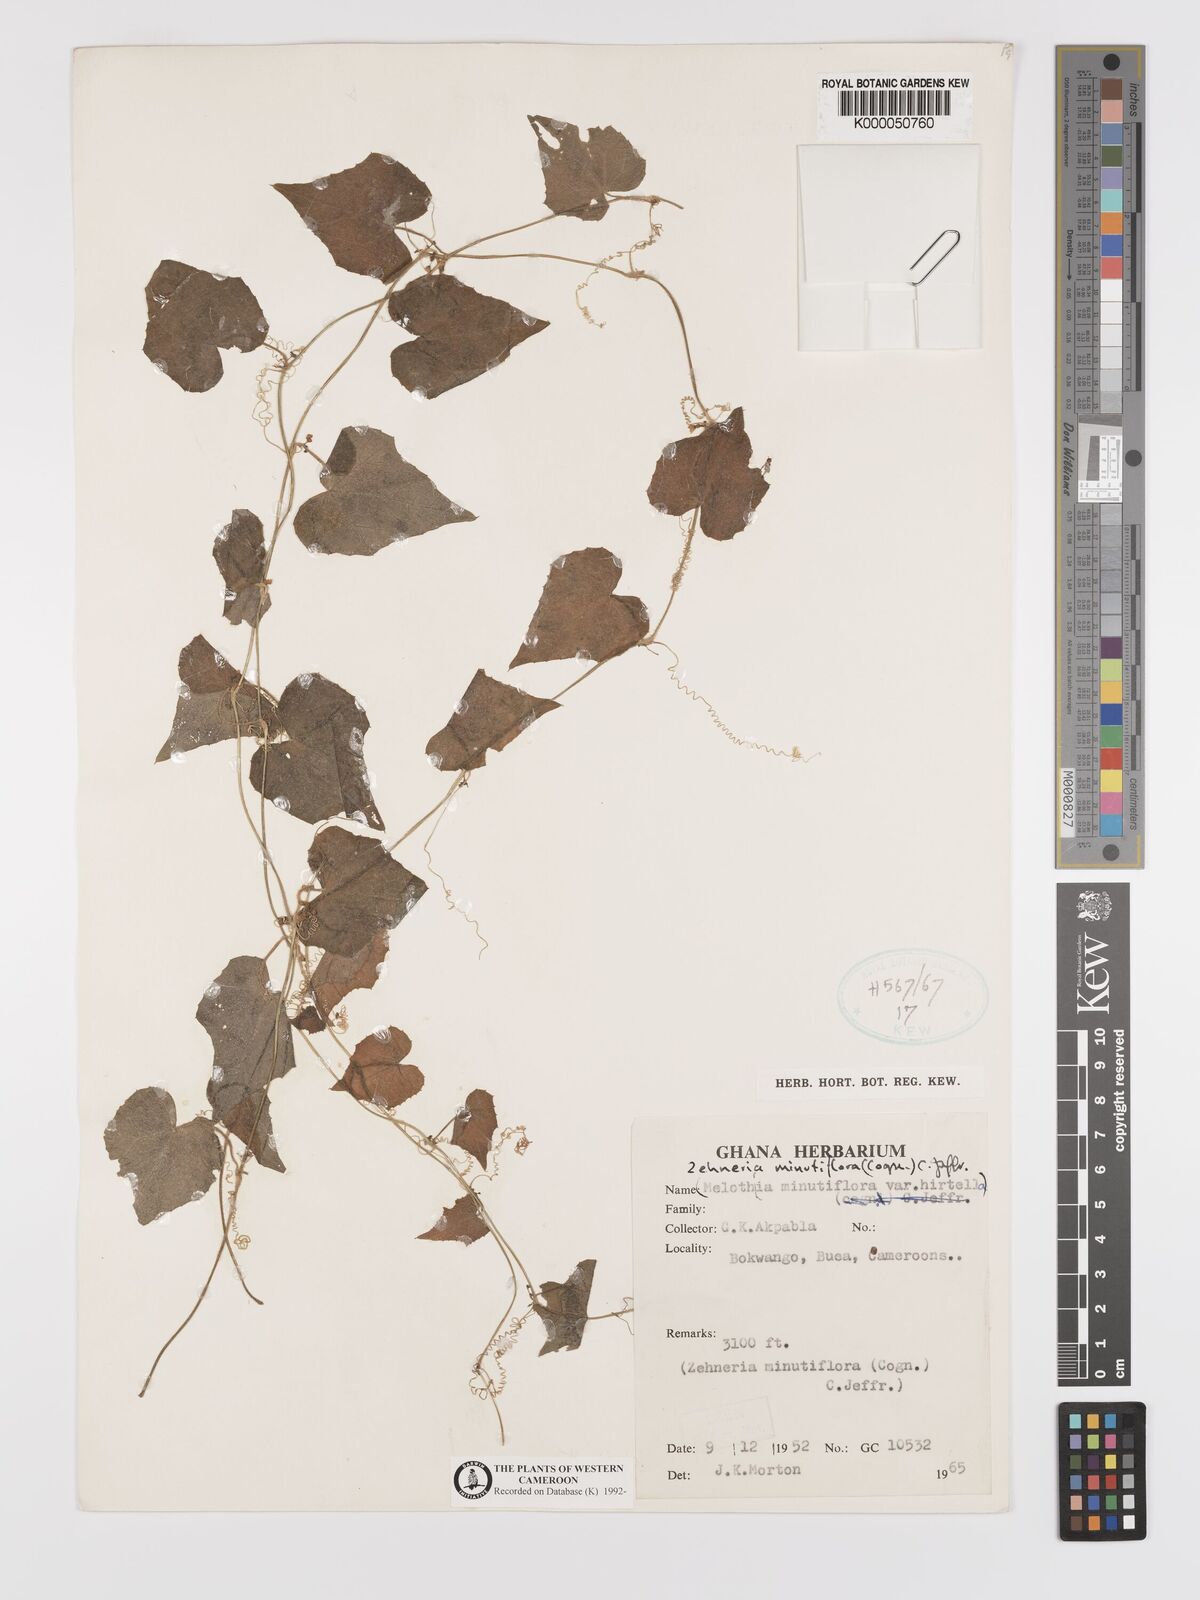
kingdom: Plantae
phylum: Tracheophyta
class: Magnoliopsida
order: Cucurbitales
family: Cucurbitaceae
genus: Zehneria
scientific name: Zehneria minutiflora
